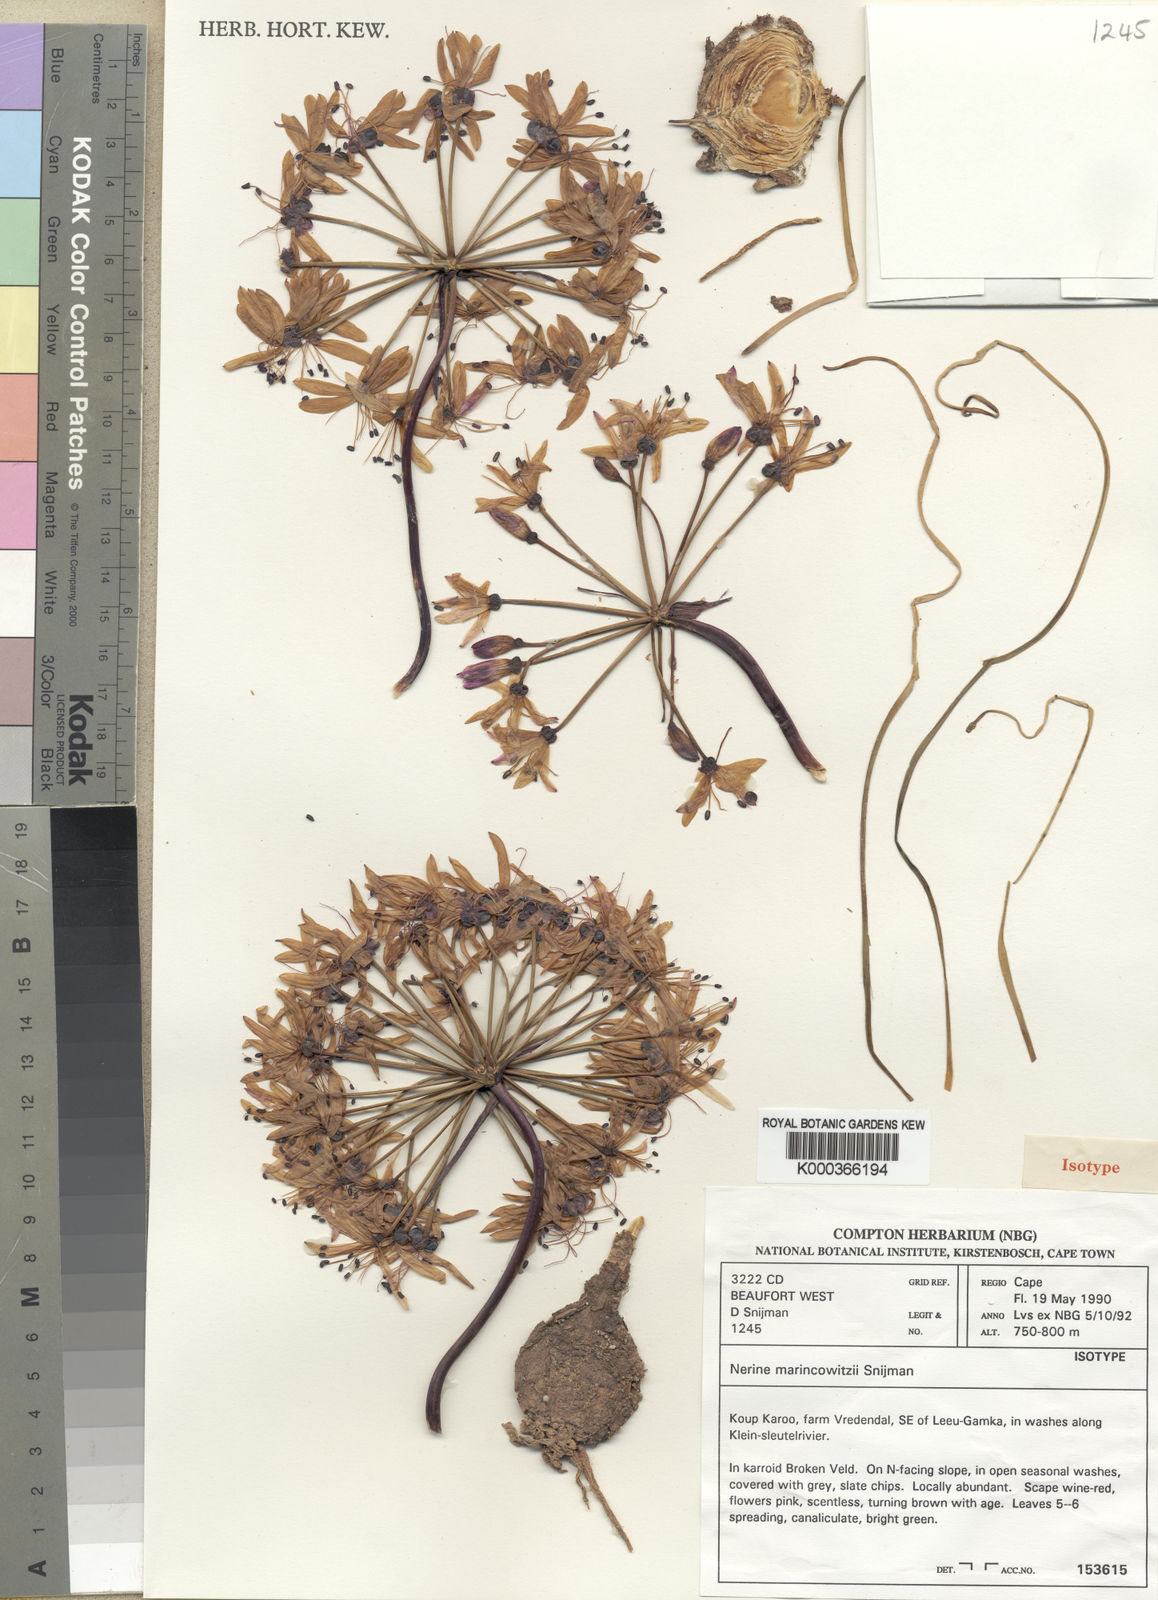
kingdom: Plantae
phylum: Tracheophyta
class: Liliopsida
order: Asparagales
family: Amaryllidaceae
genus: Nerine
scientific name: Nerine marincowitzii
